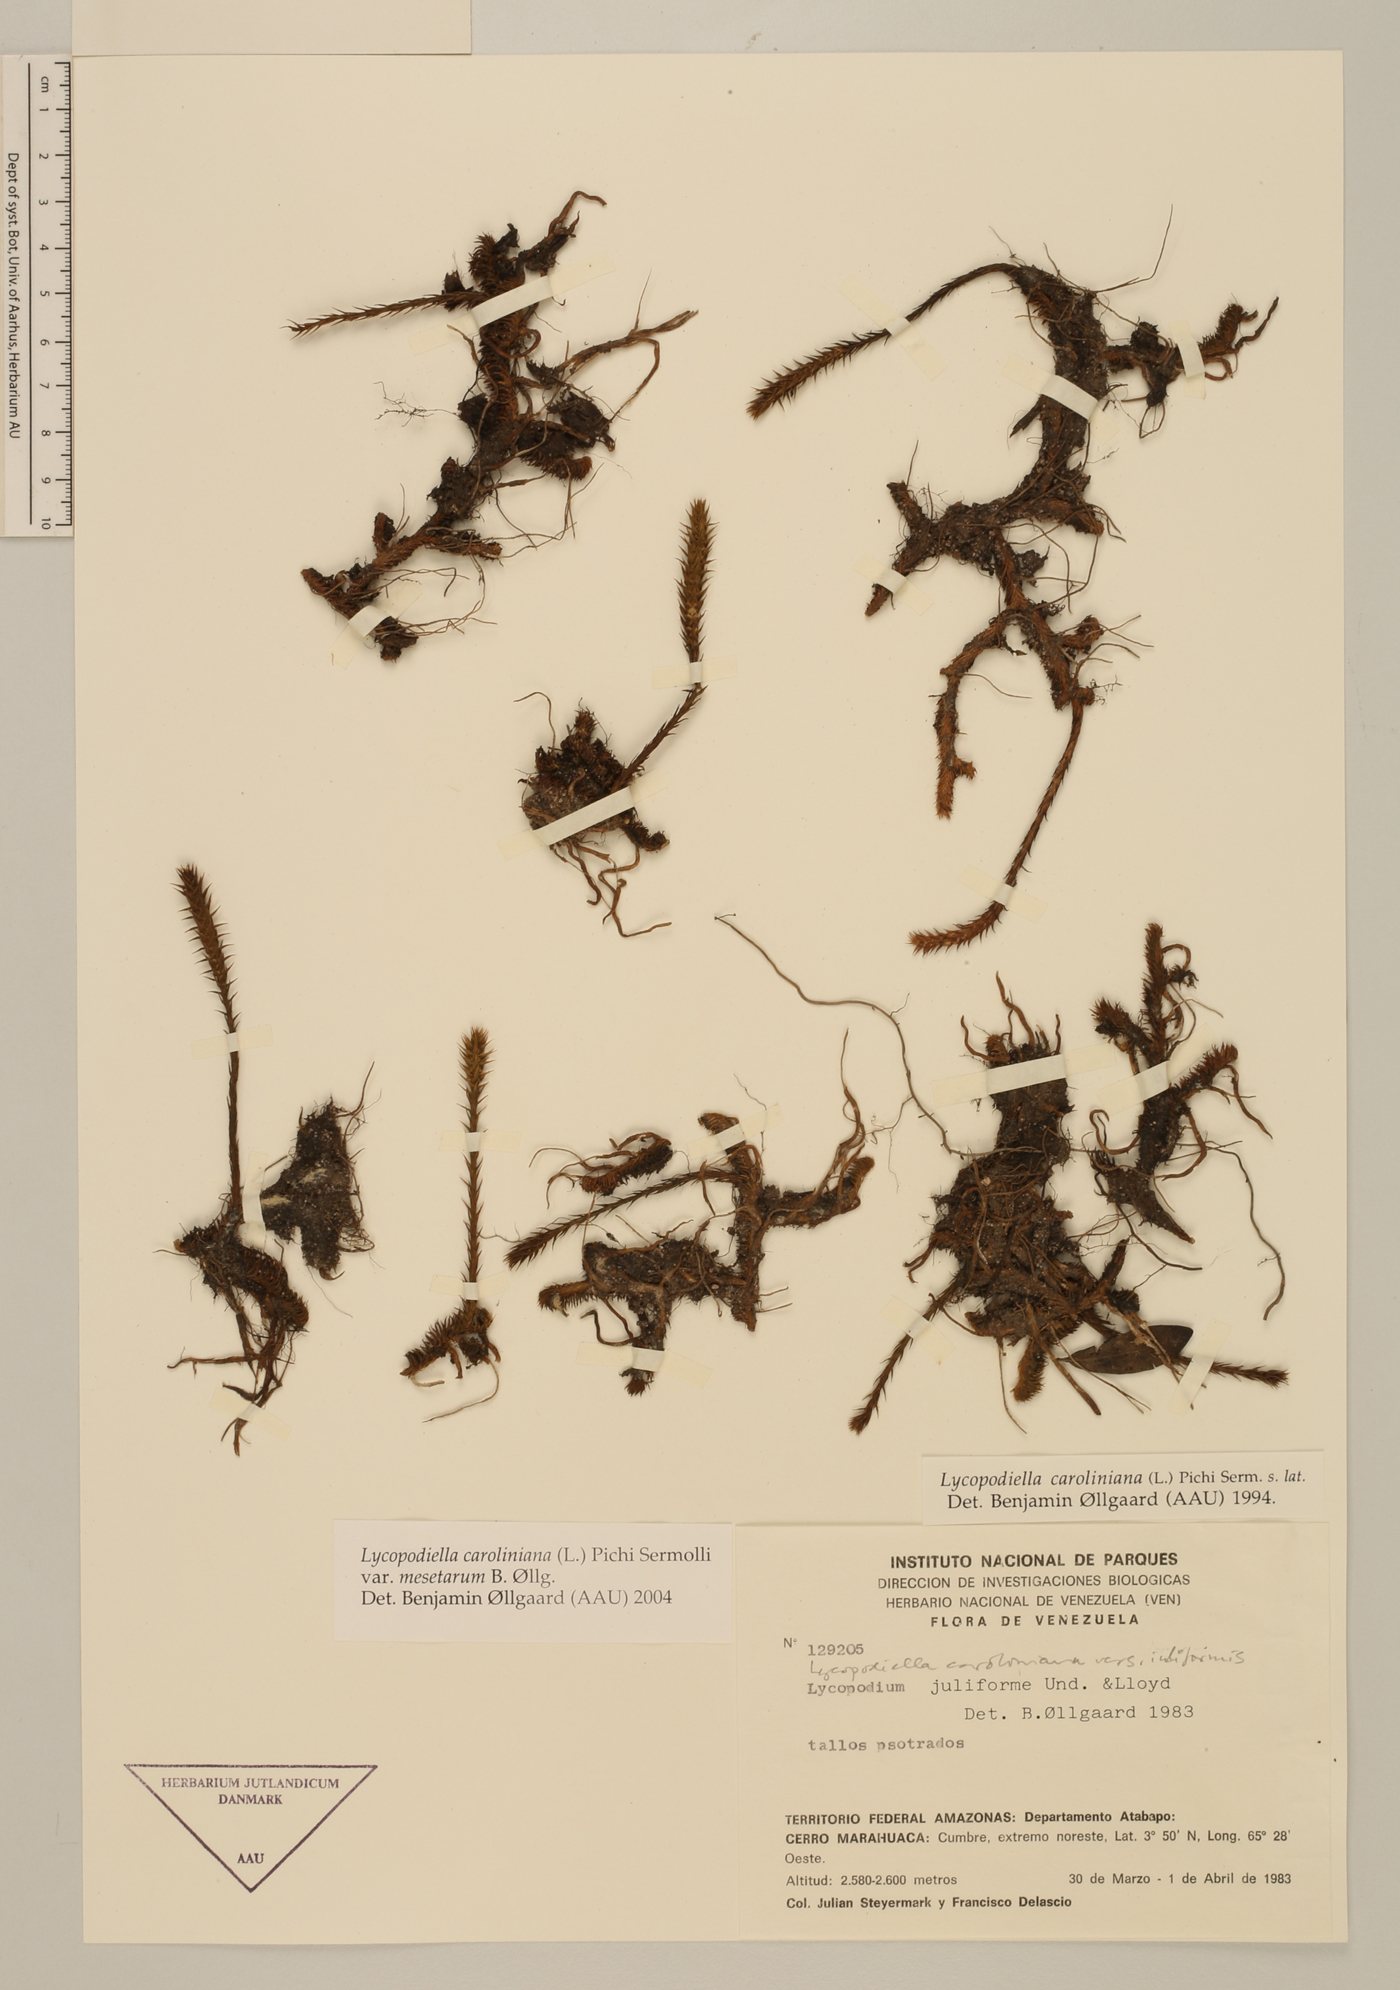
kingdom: Plantae
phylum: Tracheophyta
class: Lycopodiopsida
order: Lycopodiales
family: Lycopodiaceae
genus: Pseudolycopodiella
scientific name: Pseudolycopodiella iuliformis
